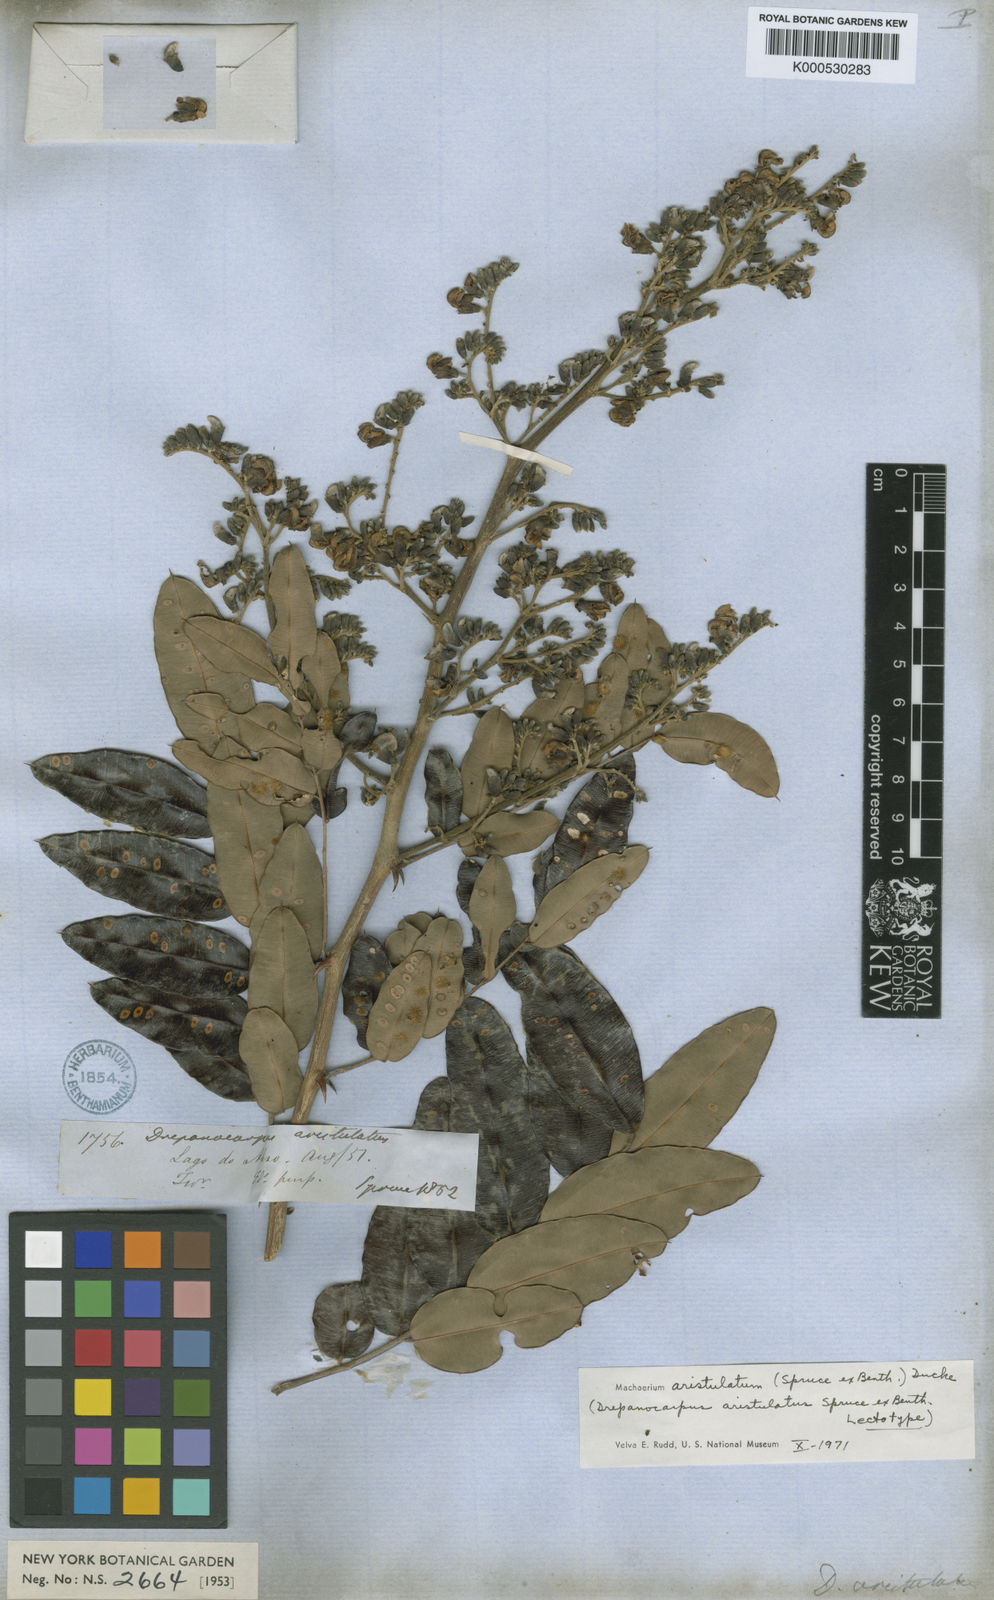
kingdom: Plantae
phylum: Tracheophyta
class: Magnoliopsida
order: Fabales
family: Fabaceae
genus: Machaerium
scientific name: Machaerium aristulatum
